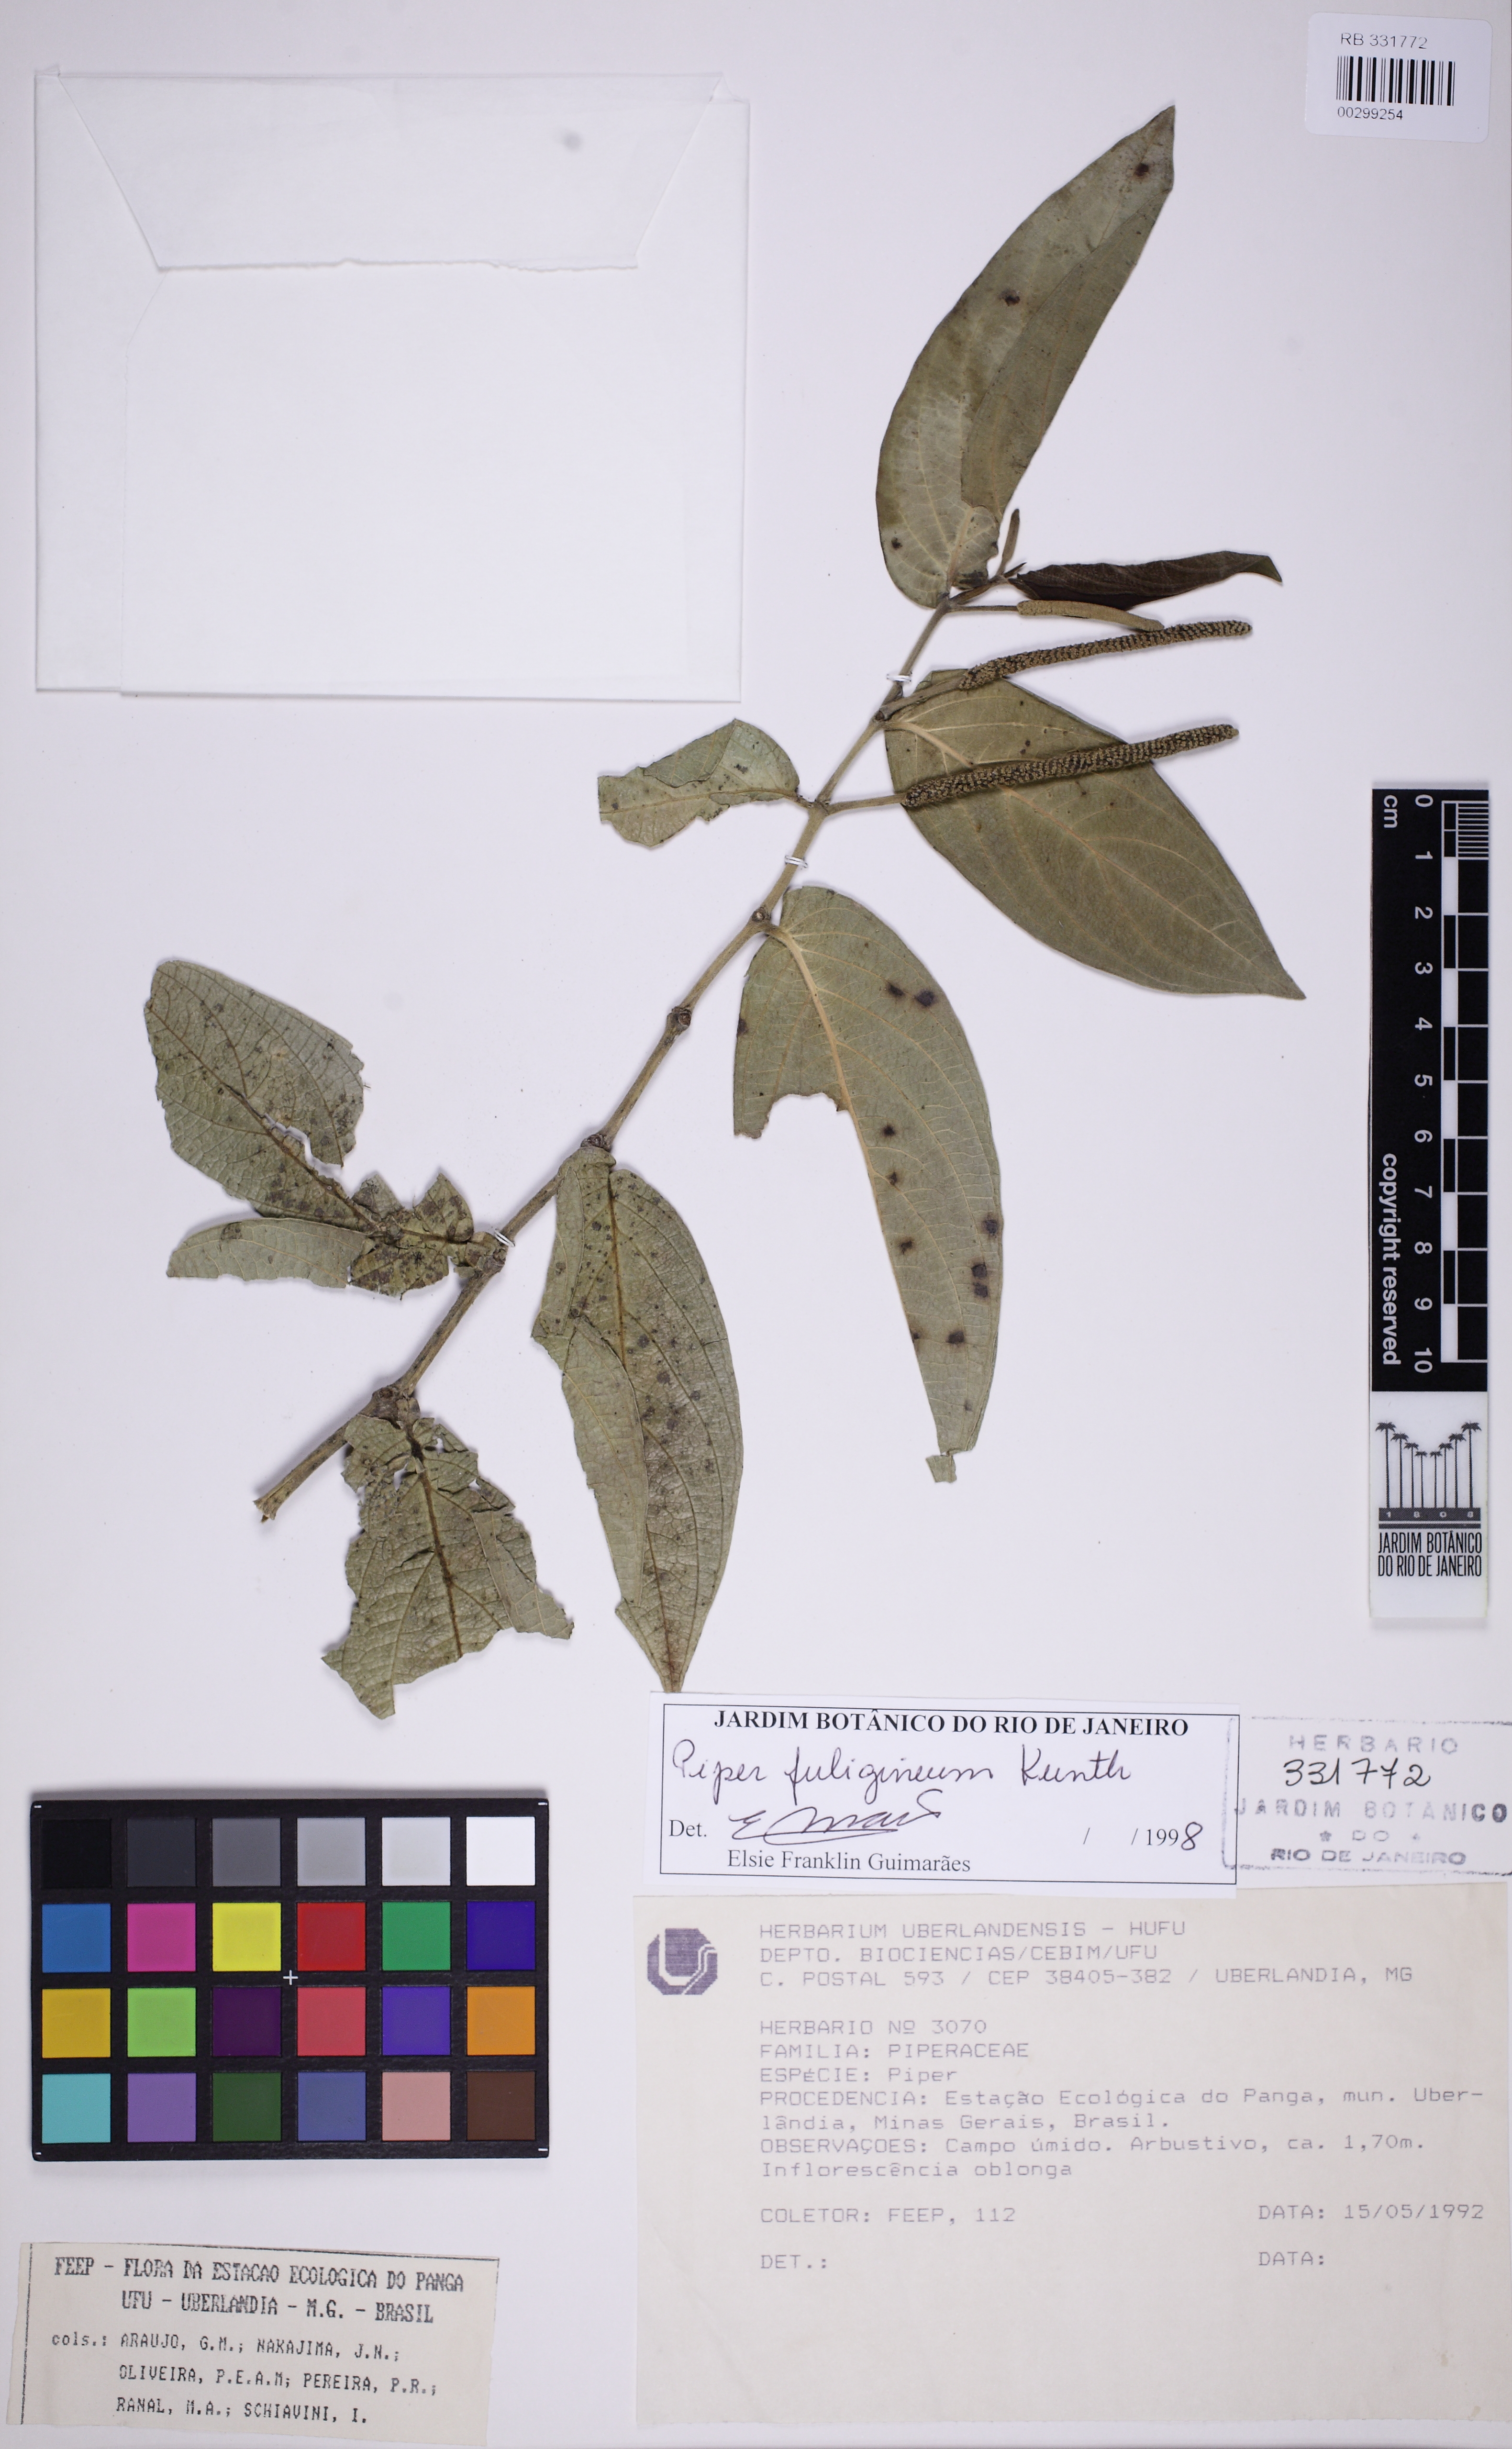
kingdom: Plantae
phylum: Tracheophyta
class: Magnoliopsida
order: Piperales
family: Piperaceae
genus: Piper
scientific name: Piper fuligineum
